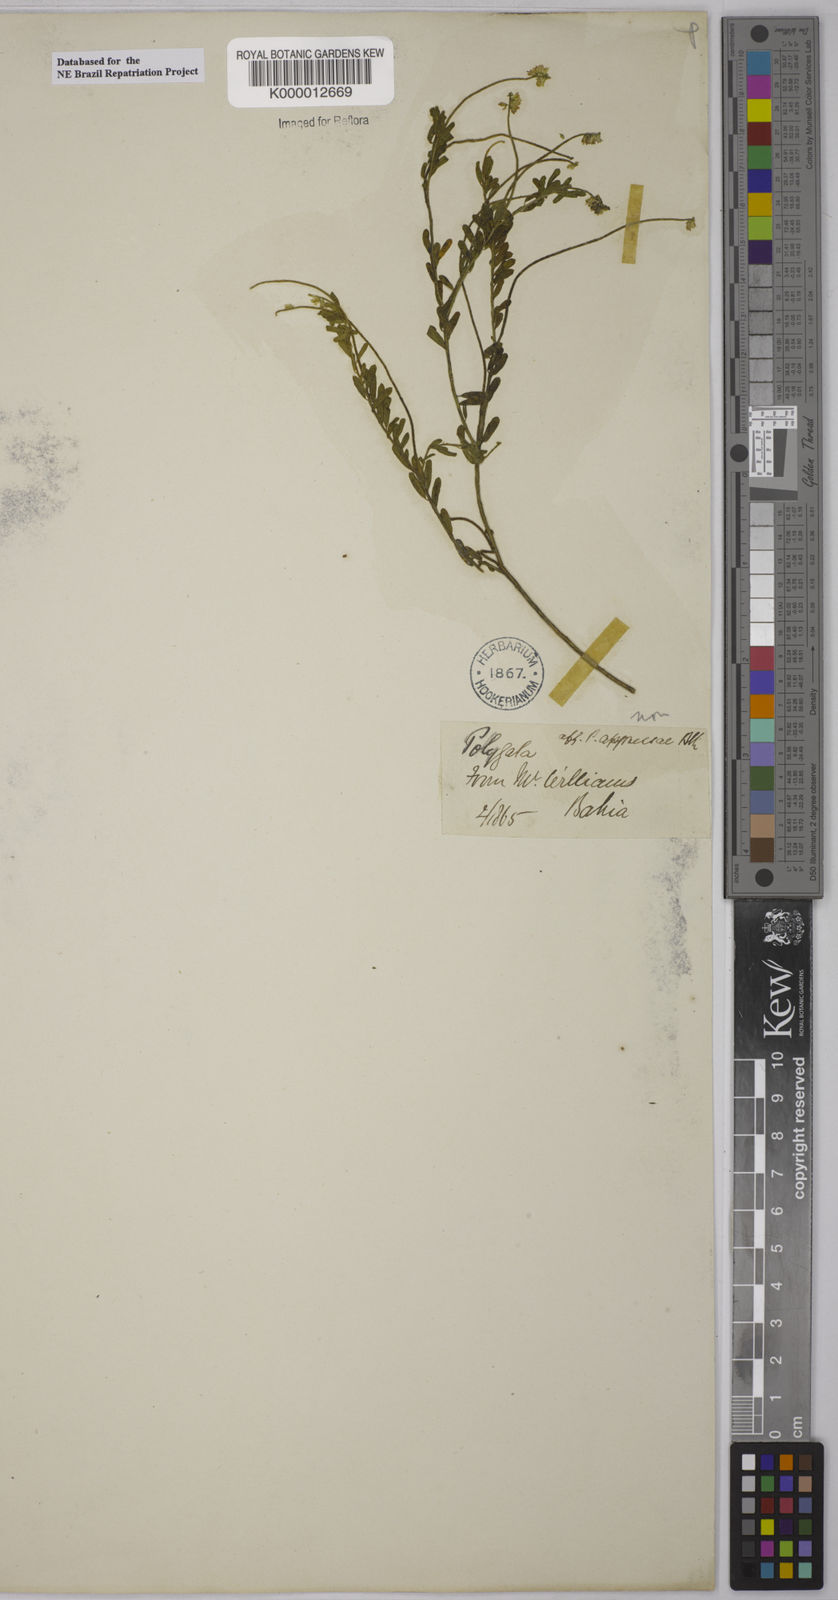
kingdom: Plantae
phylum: Tracheophyta
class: Magnoliopsida
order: Fabales
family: Polygalaceae
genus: Polygala
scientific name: Polygala
